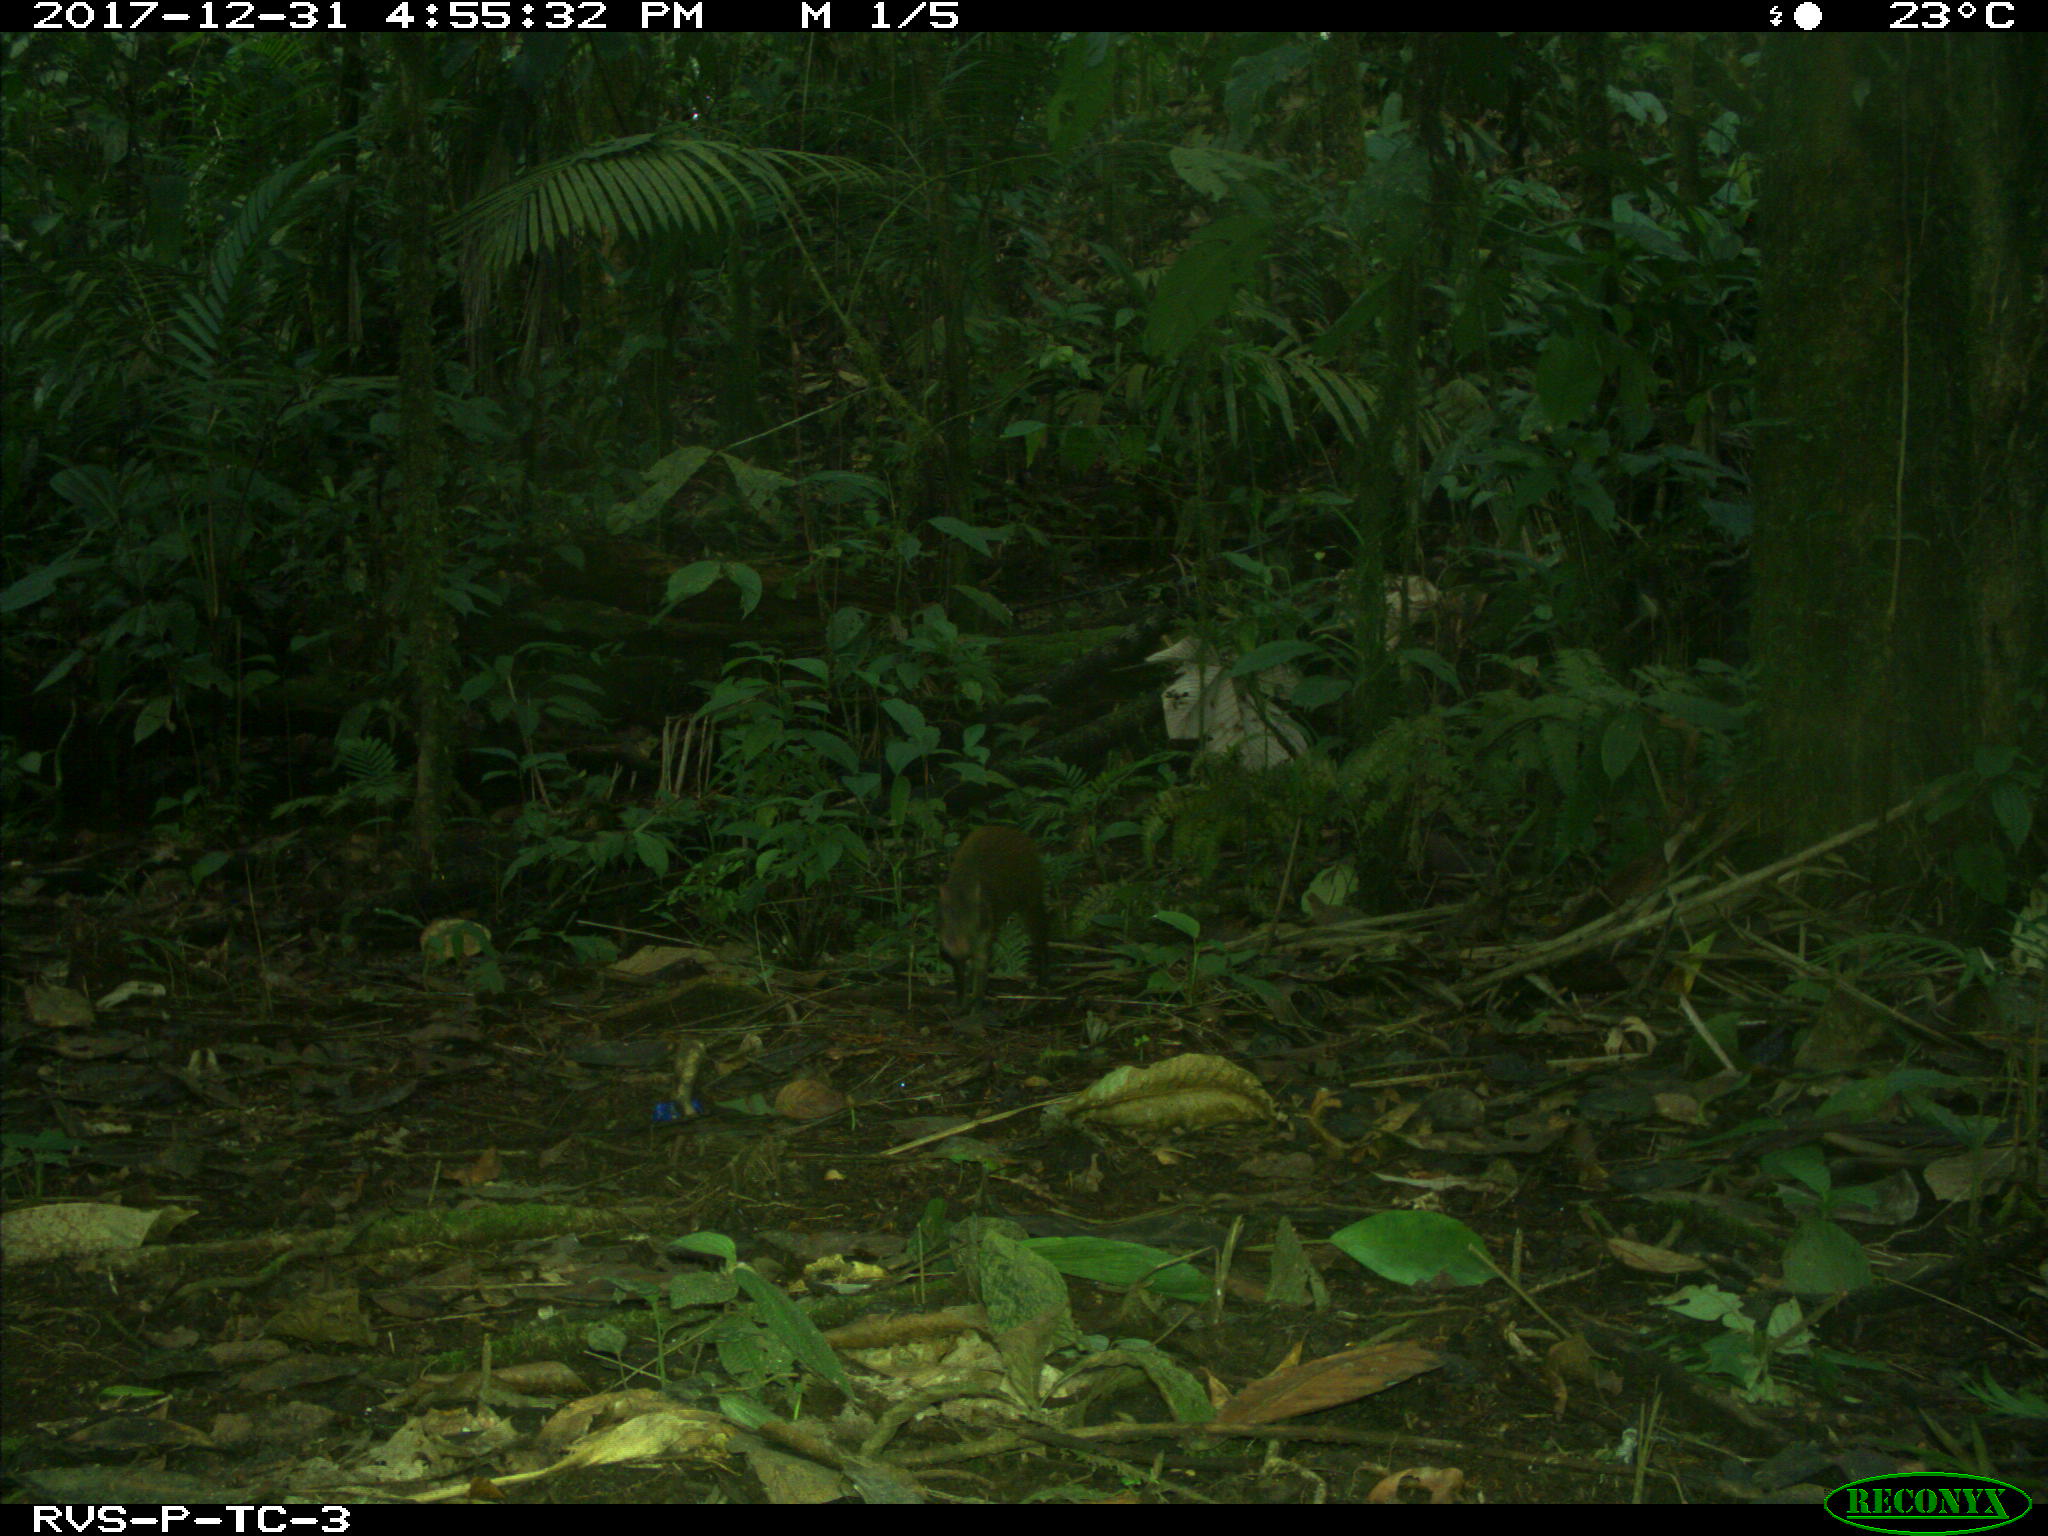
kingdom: Animalia
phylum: Chordata
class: Mammalia
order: Rodentia
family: Dasyproctidae
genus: Dasyprocta
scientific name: Dasyprocta punctata
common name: Central american agouti
